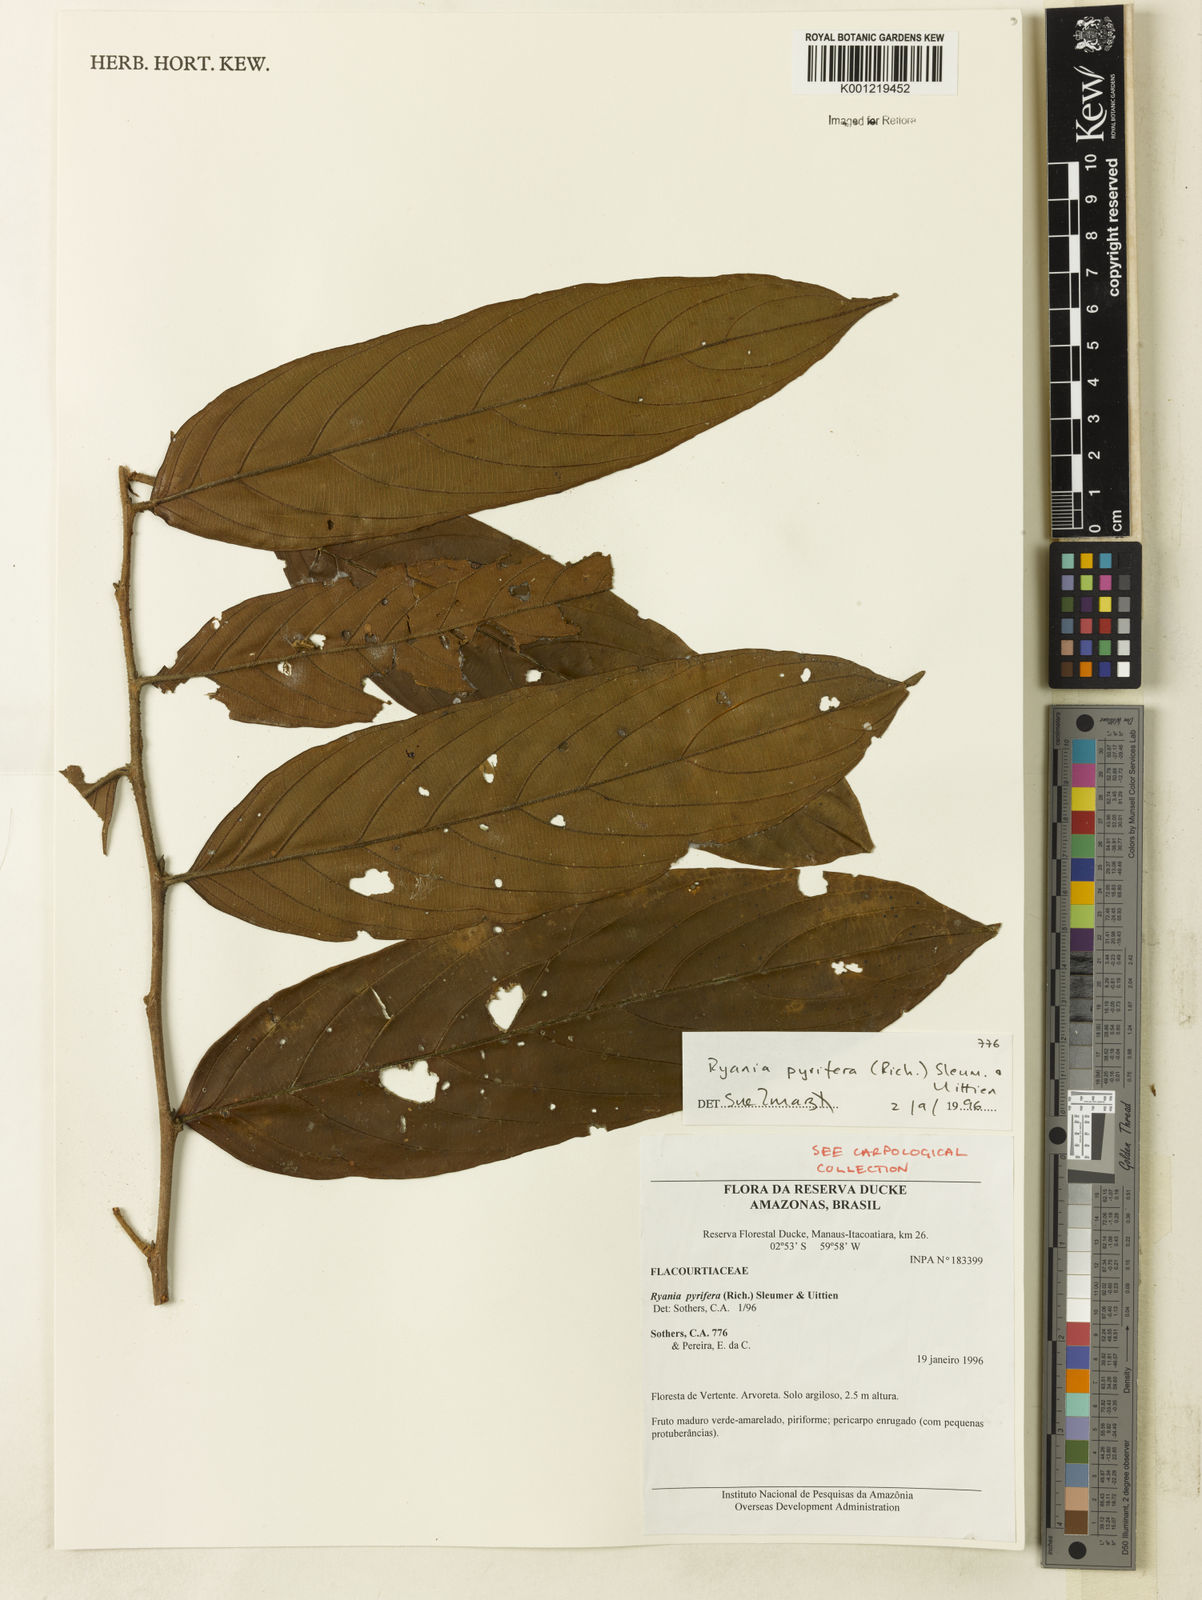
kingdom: Plantae
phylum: Tracheophyta
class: Magnoliopsida
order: Malpighiales
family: Salicaceae
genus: Ryania
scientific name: Ryania pyrifera
